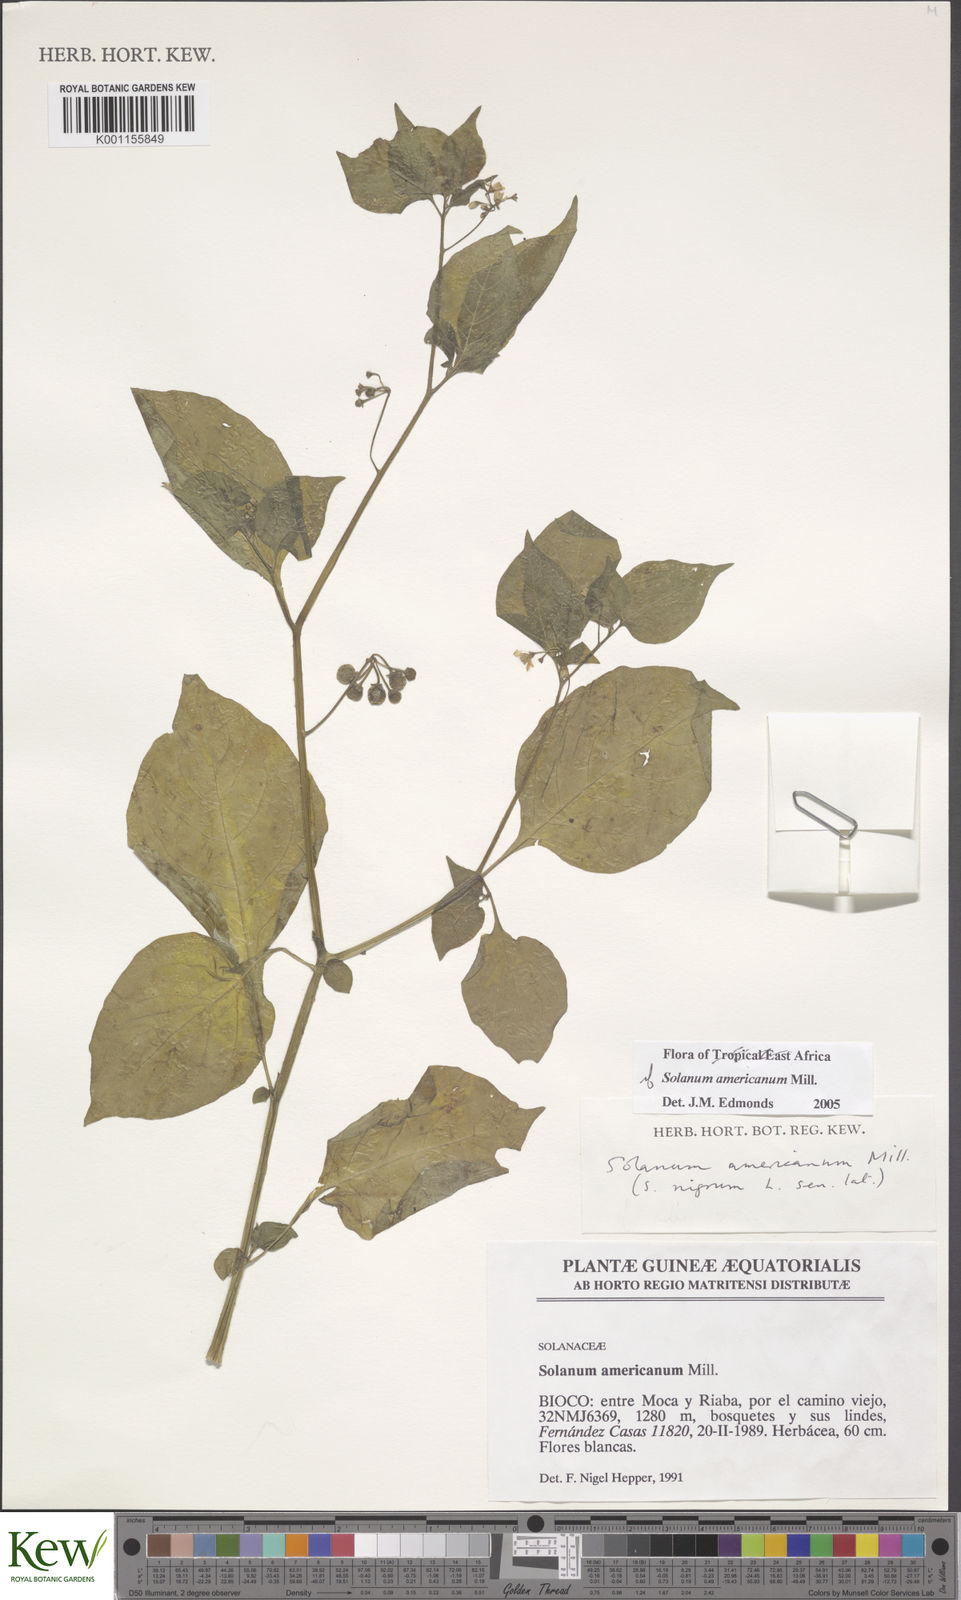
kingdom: Plantae
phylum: Tracheophyta
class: Magnoliopsida
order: Solanales
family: Solanaceae
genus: Solanum
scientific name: Solanum scabrum
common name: Garden-huckleberry
